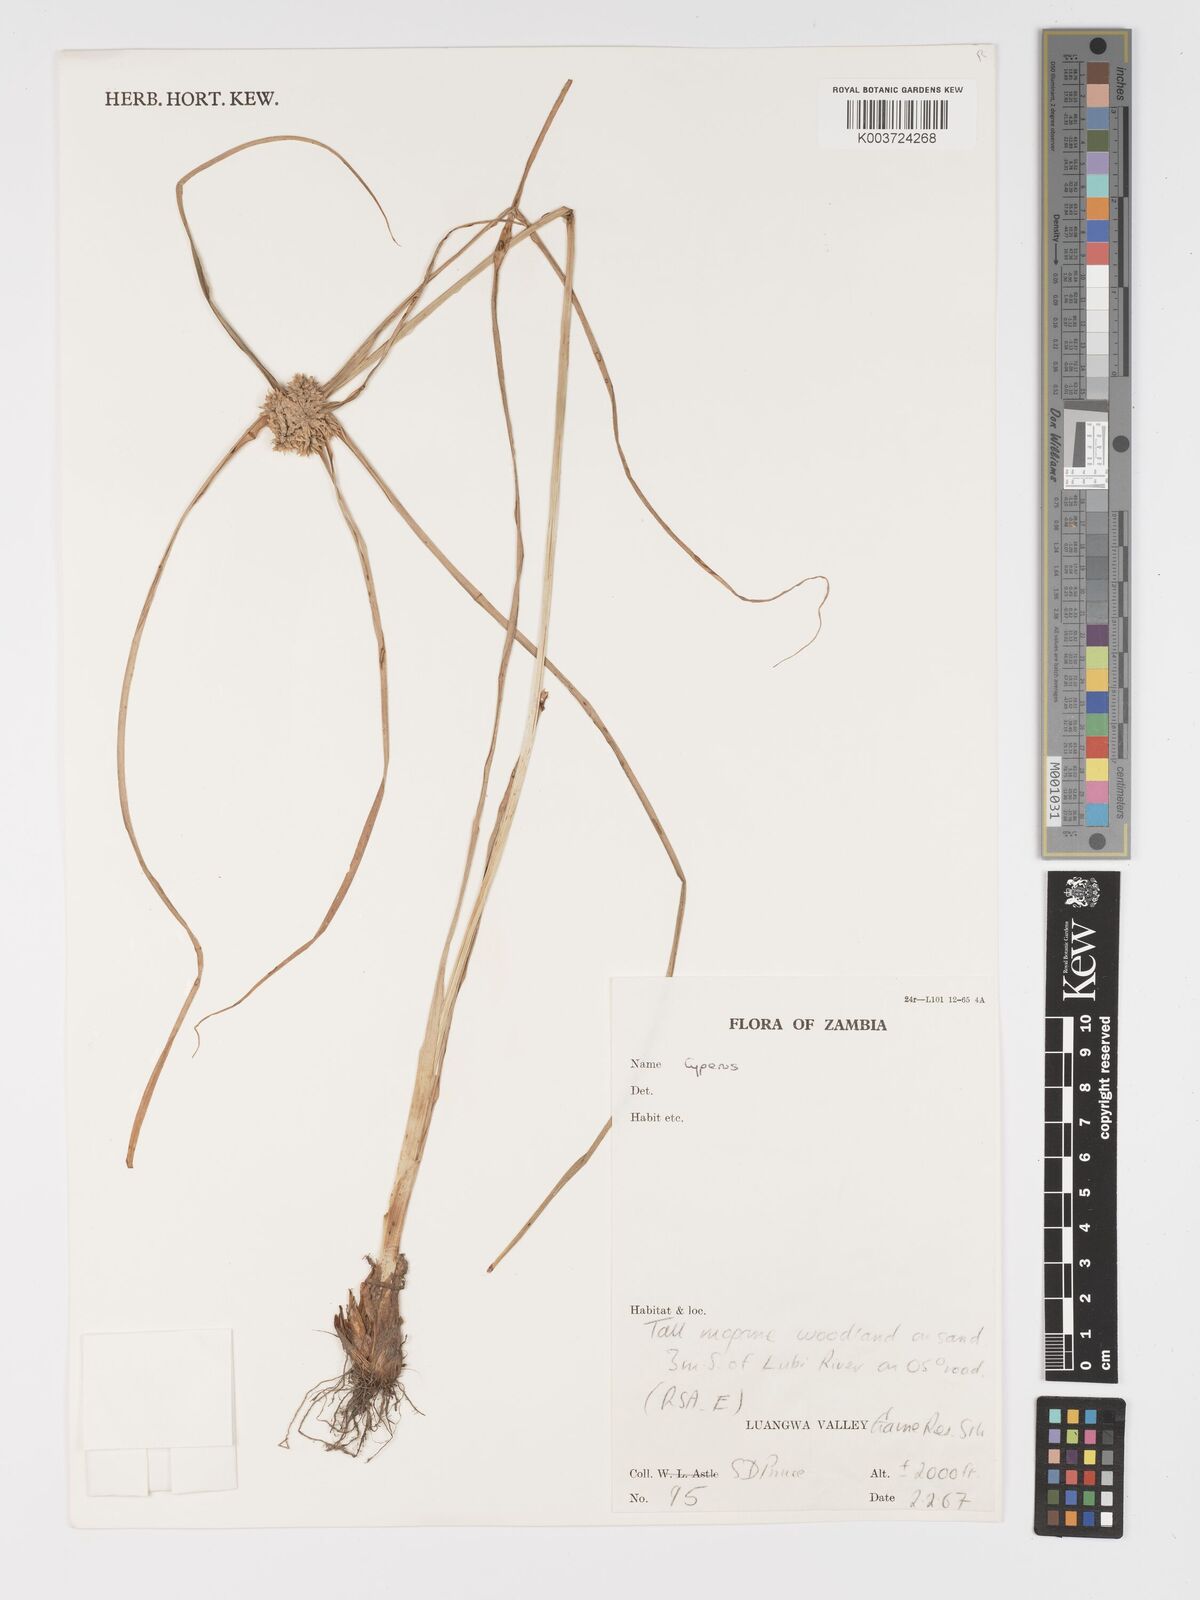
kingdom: Plantae
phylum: Tracheophyta
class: Liliopsida
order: Poales
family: Cyperaceae
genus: Cyperus
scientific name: Cyperus
